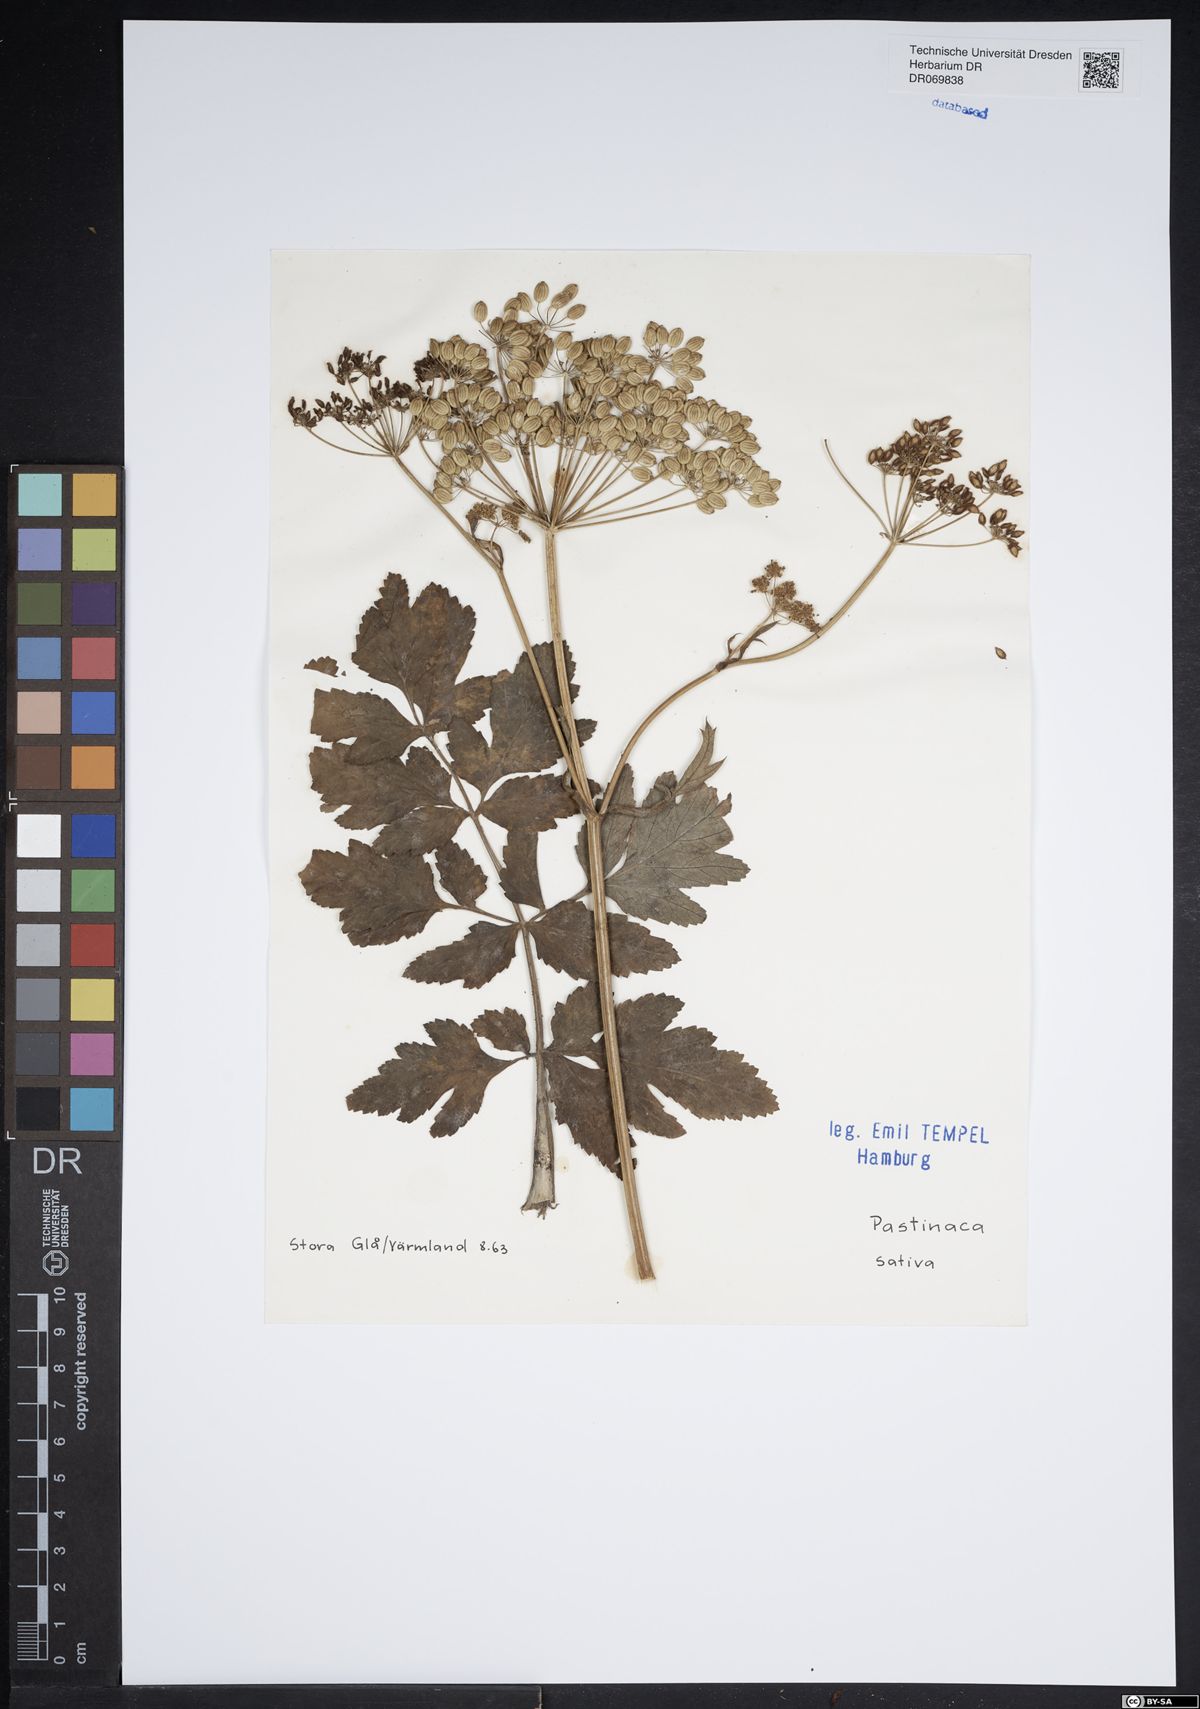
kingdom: Plantae
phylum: Tracheophyta
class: Magnoliopsida
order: Apiales
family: Apiaceae
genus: Pastinaca
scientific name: Pastinaca sativa
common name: Wild parsnip
